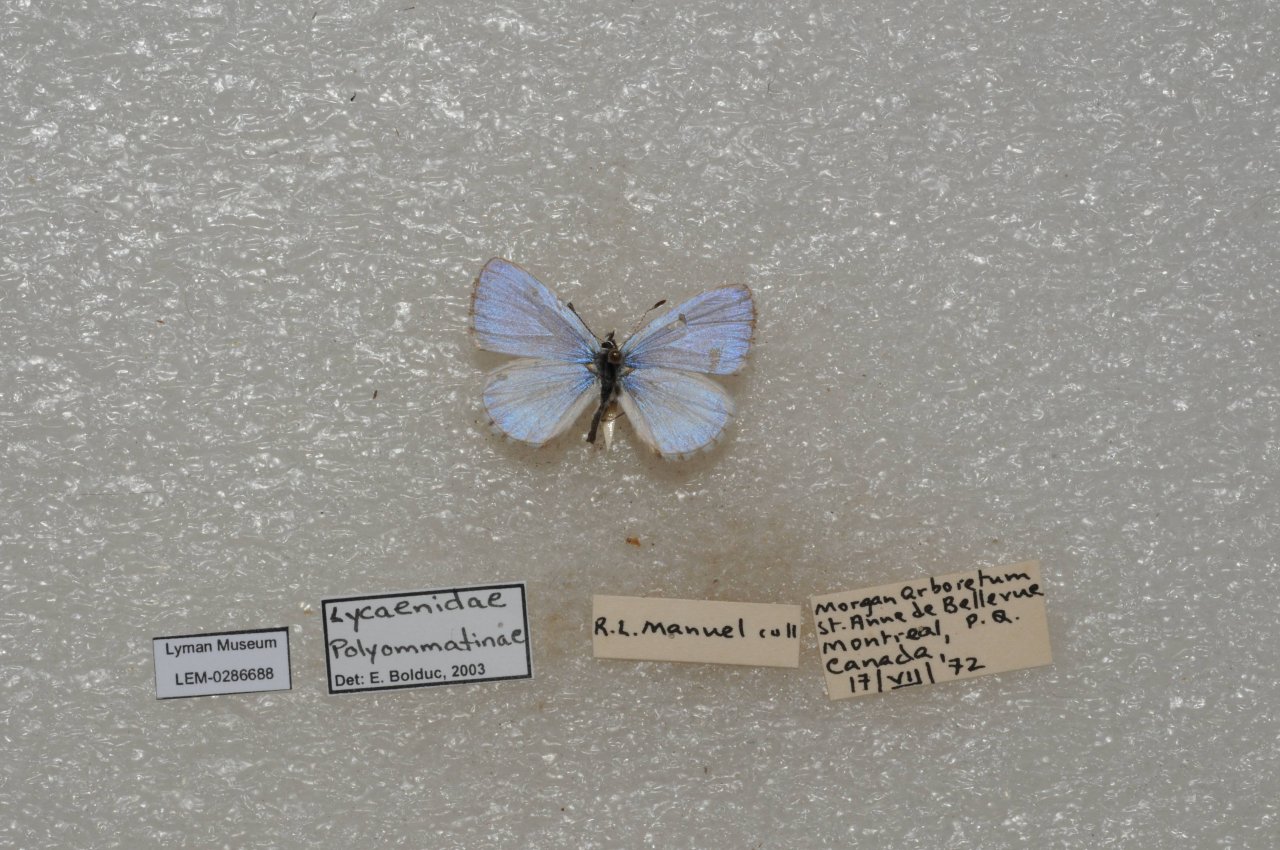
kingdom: Animalia
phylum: Arthropoda
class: Insecta
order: Lepidoptera
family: Lycaenidae
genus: Celastrina
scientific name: Celastrina lucia
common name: Northern Spring Azure
